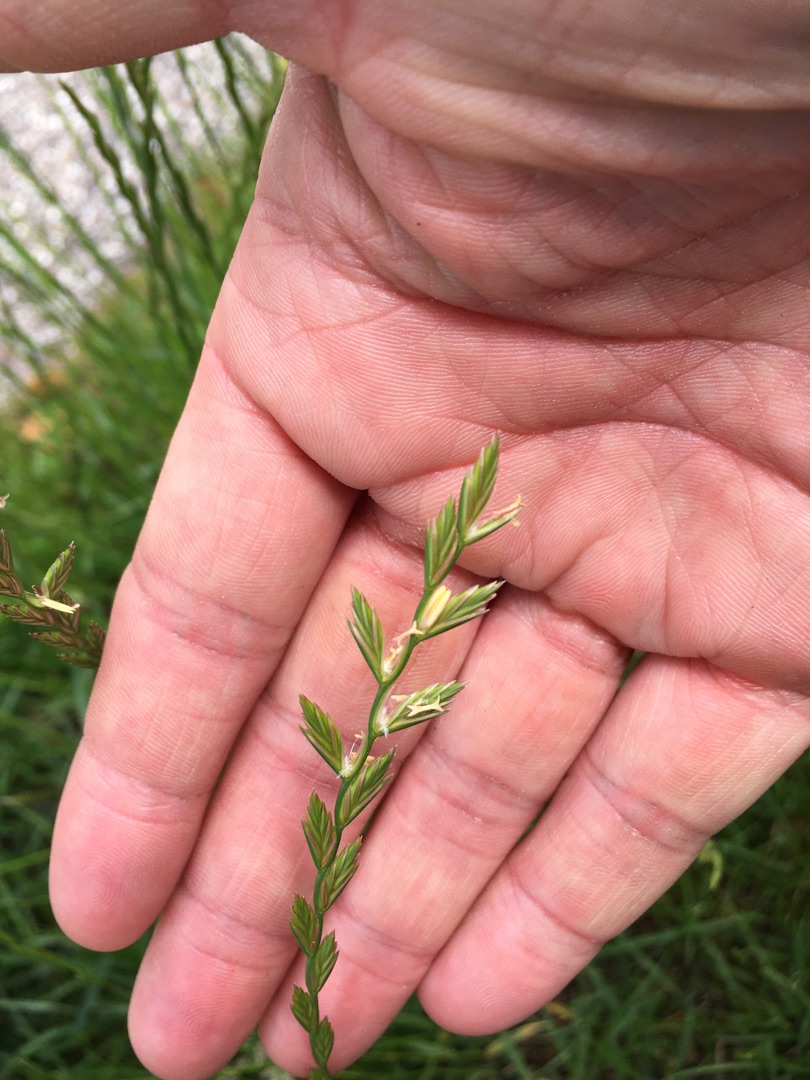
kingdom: Plantae
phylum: Tracheophyta
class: Liliopsida
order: Poales
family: Poaceae
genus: Lolium
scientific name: Lolium perenne
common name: Almindelig rajgræs
